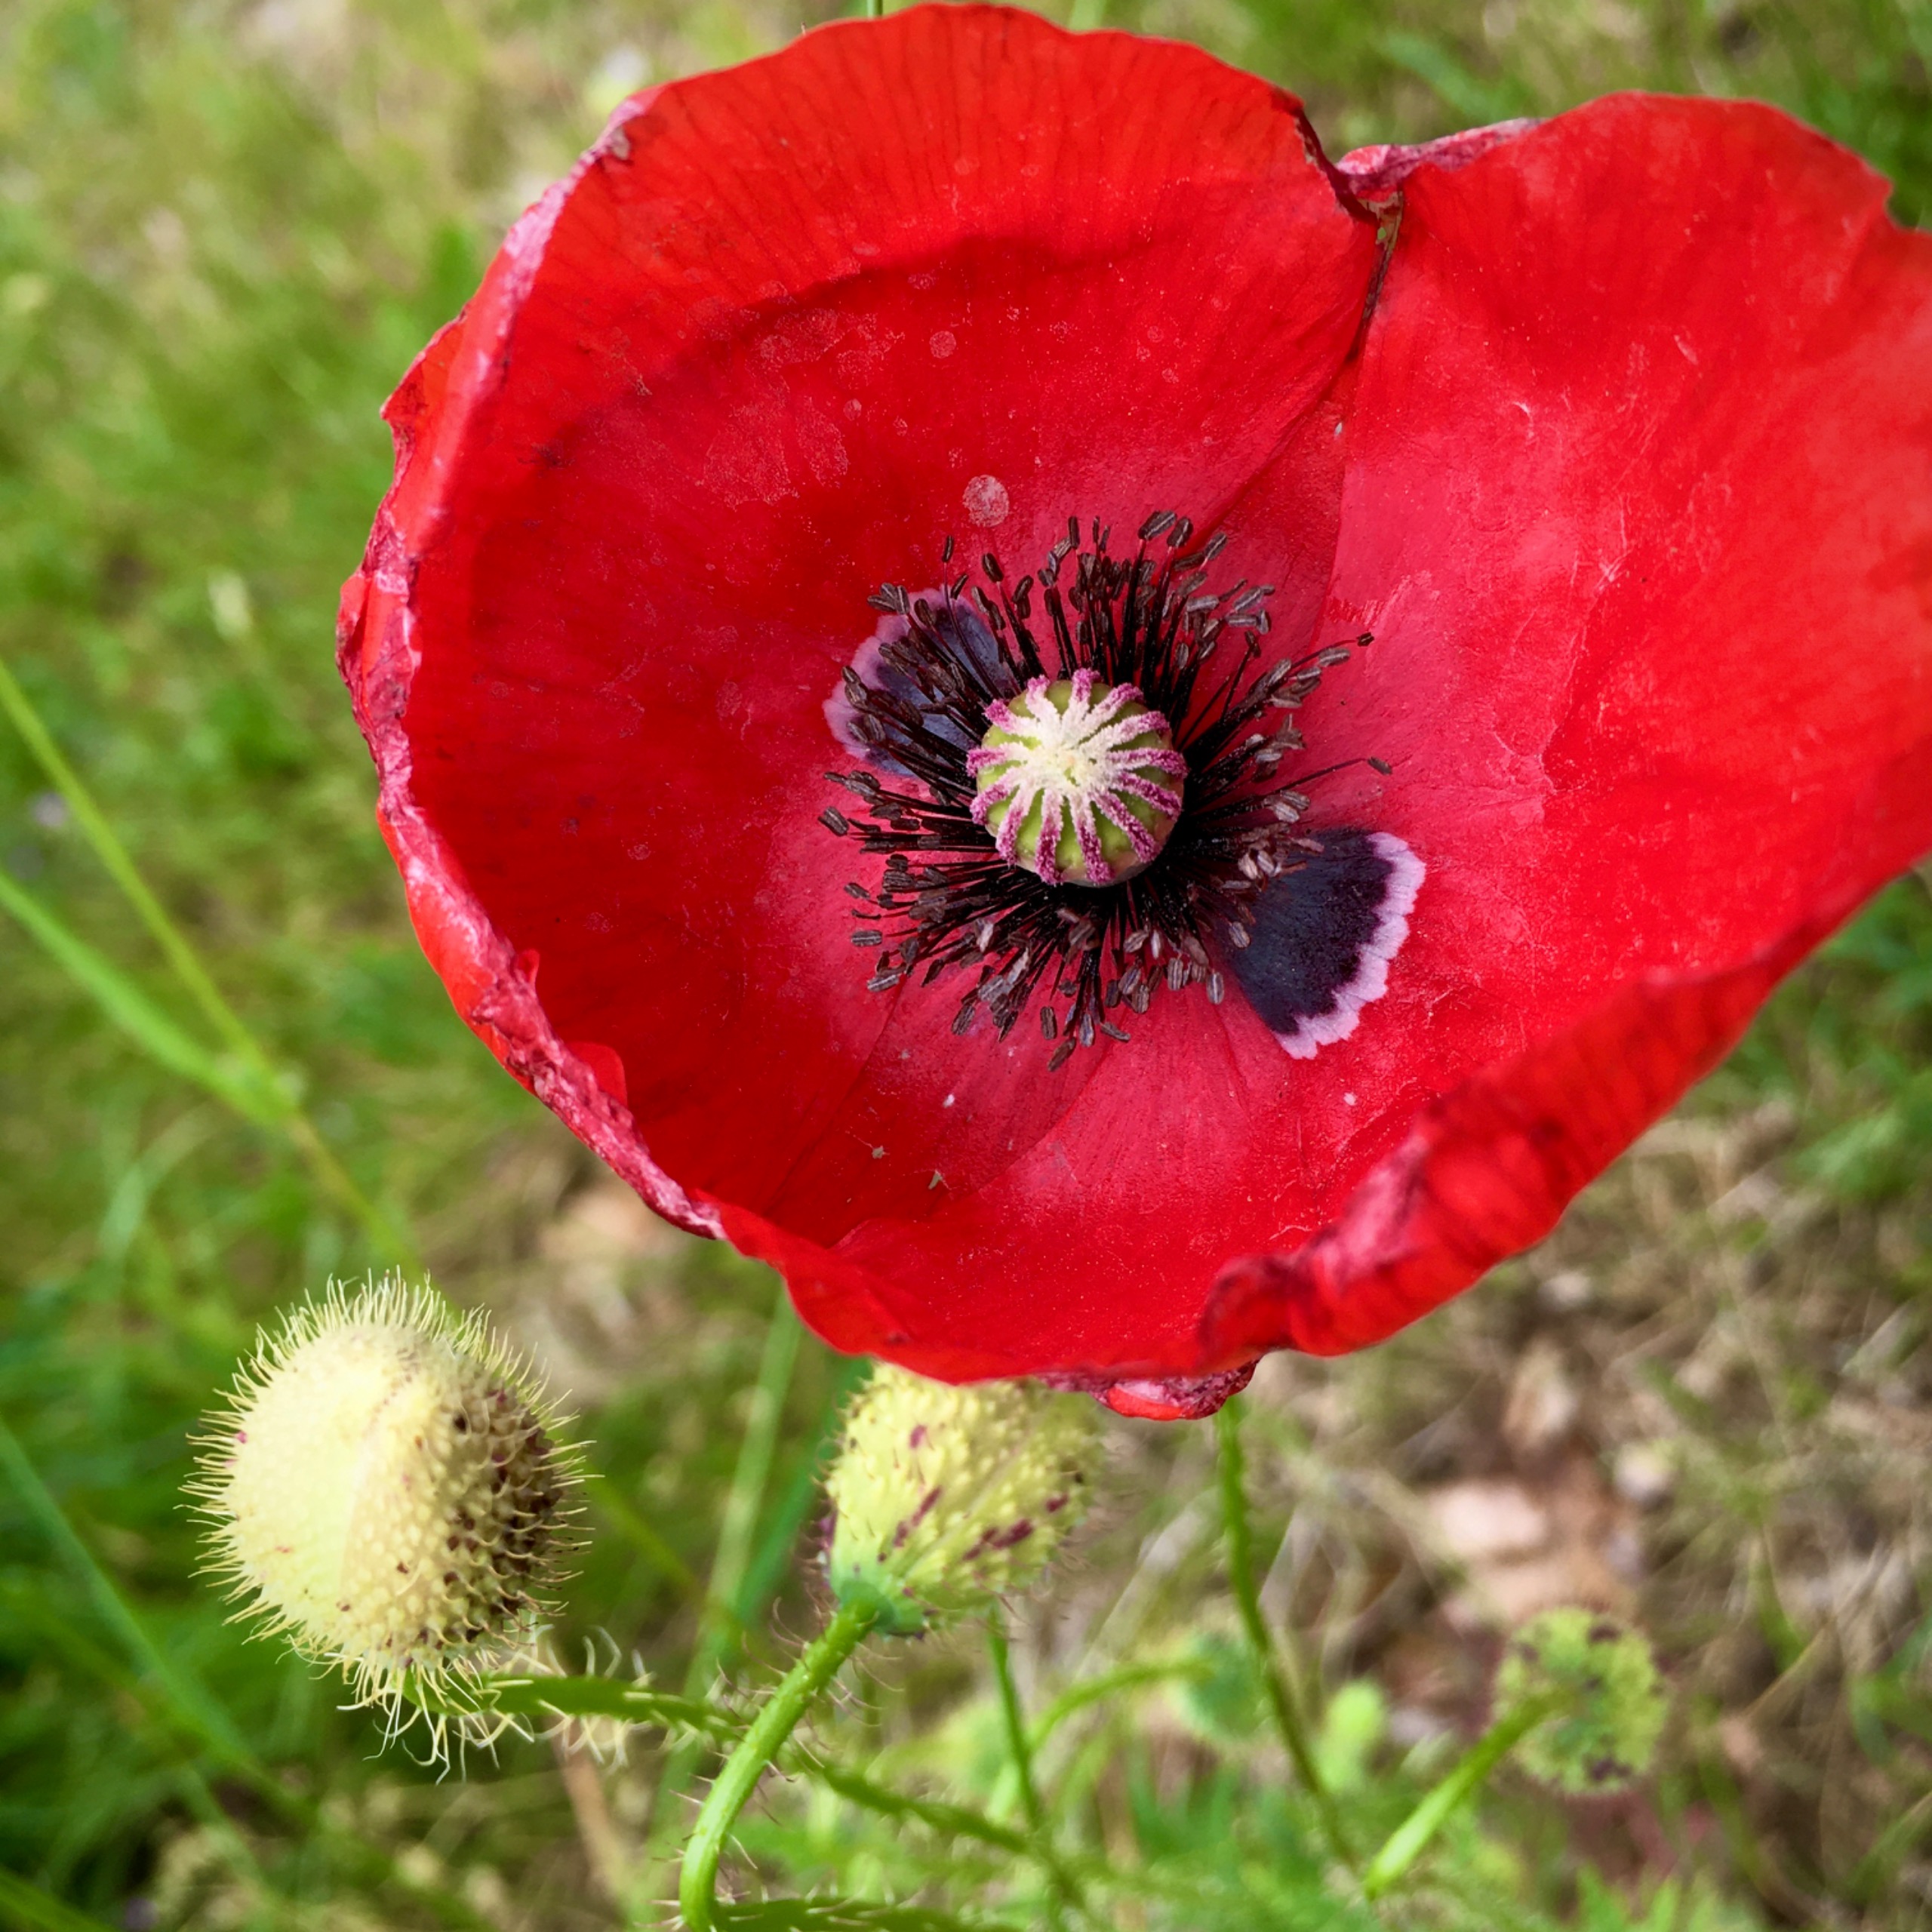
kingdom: Plantae
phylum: Tracheophyta
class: Magnoliopsida
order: Ranunculales
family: Papaveraceae
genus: Papaver
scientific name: Papaver rhoeas
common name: Korn-valmue
